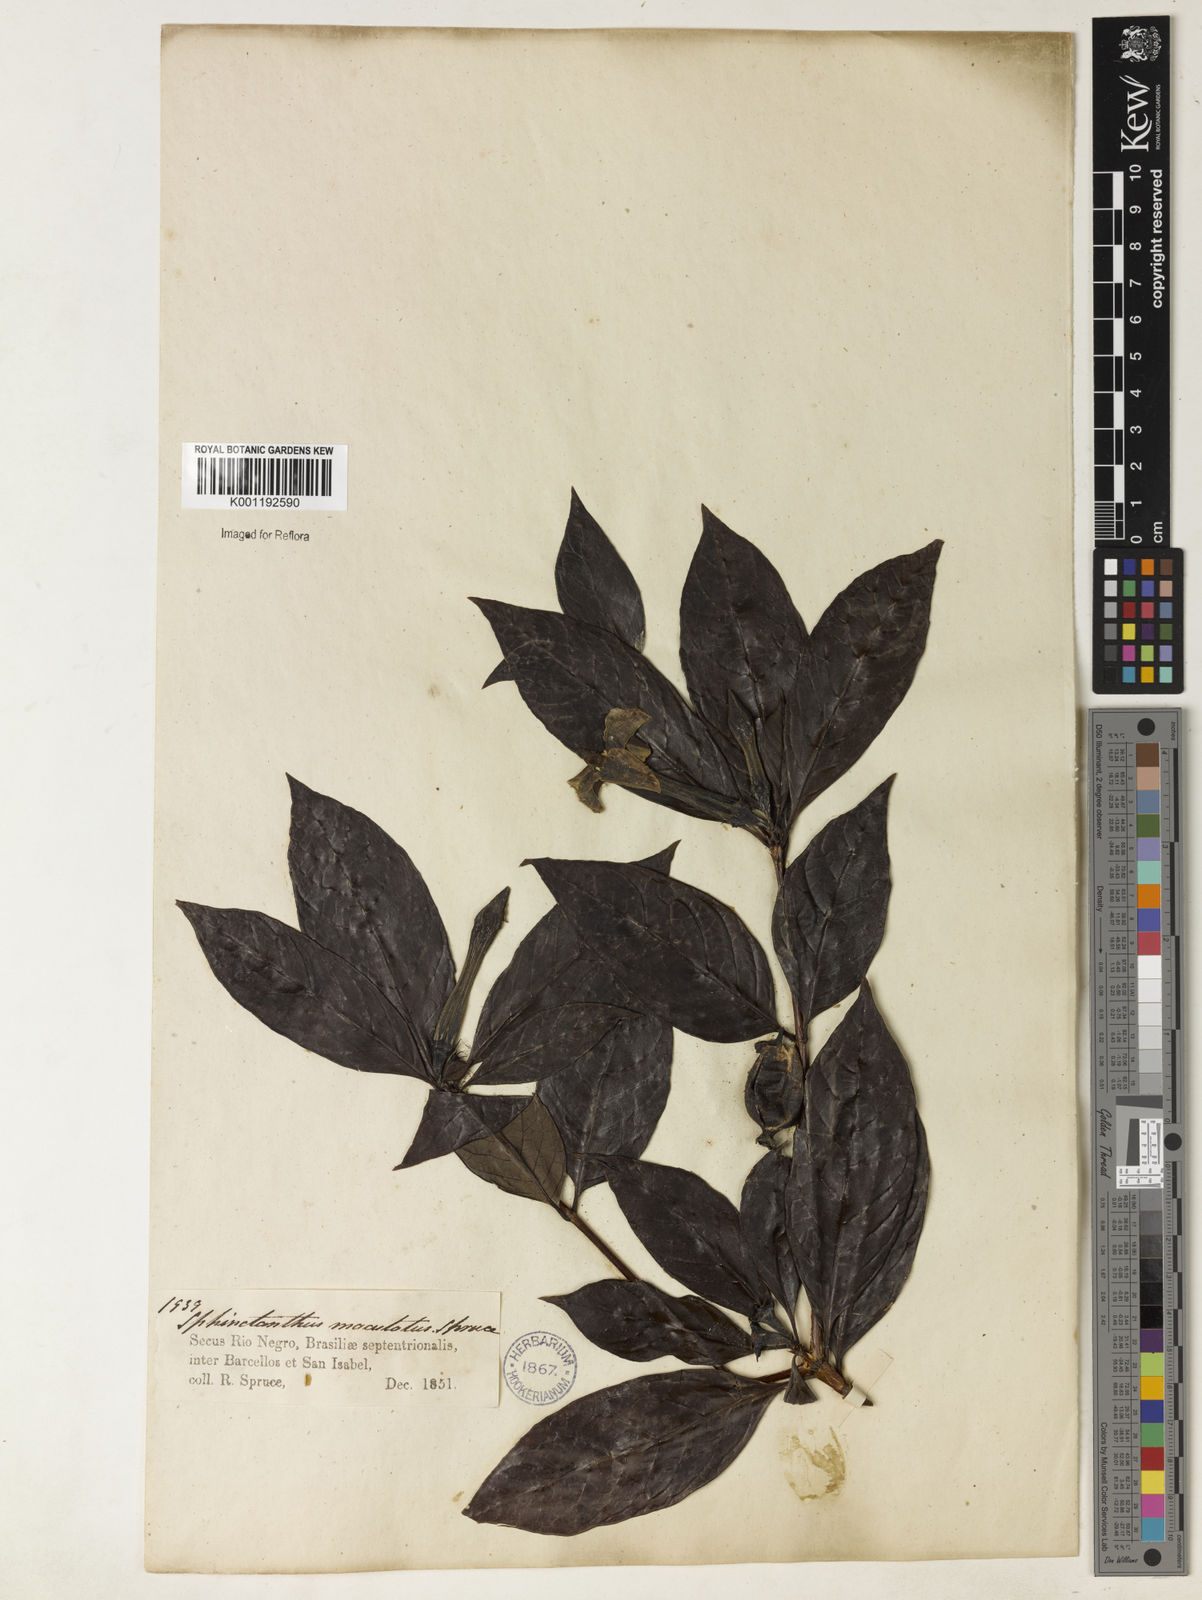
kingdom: Plantae
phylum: Tracheophyta
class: Magnoliopsida
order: Gentianales
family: Rubiaceae
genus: Sphinctanthus
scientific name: Sphinctanthus polycarpus
